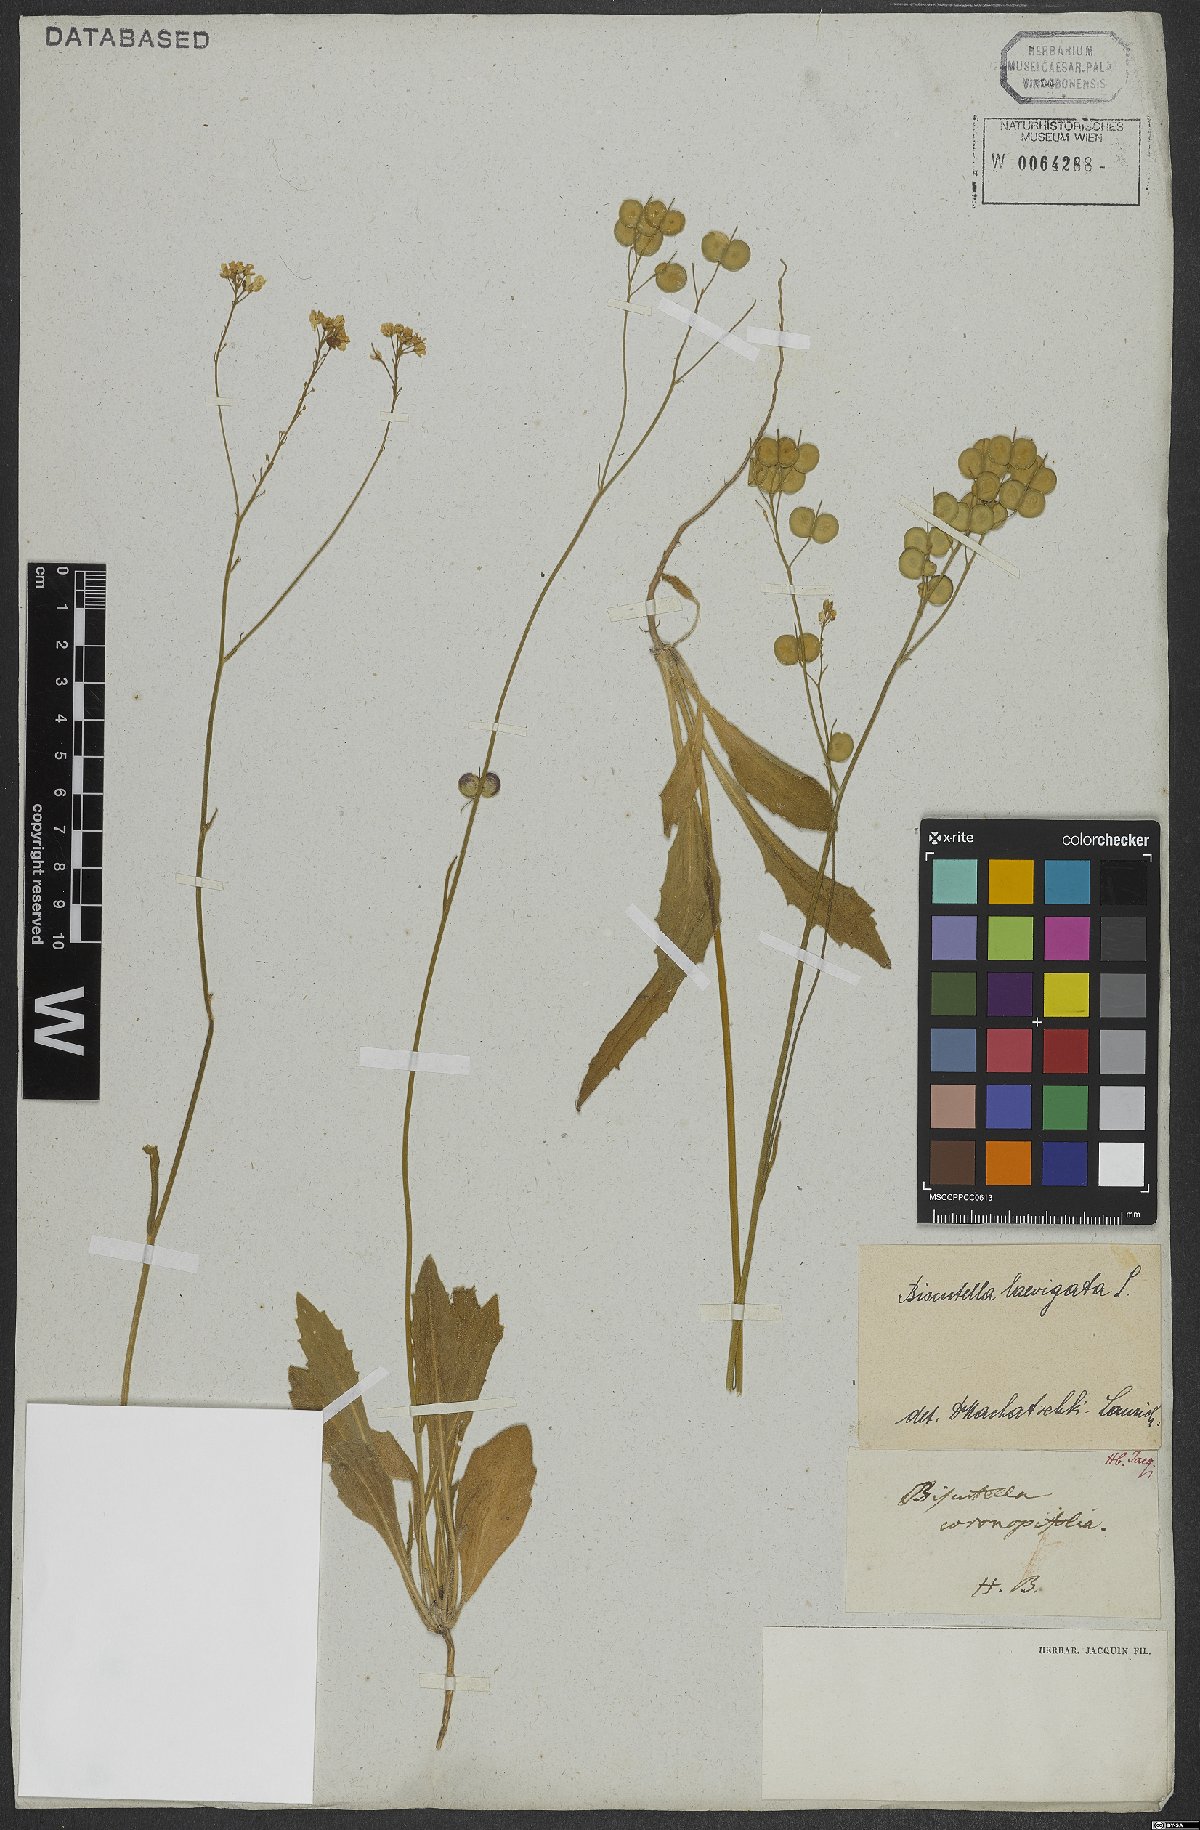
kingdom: Plantae
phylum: Tracheophyta
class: Magnoliopsida
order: Brassicales
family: Brassicaceae
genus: Biscutella
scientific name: Biscutella laevigata
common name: Buckler mustard
